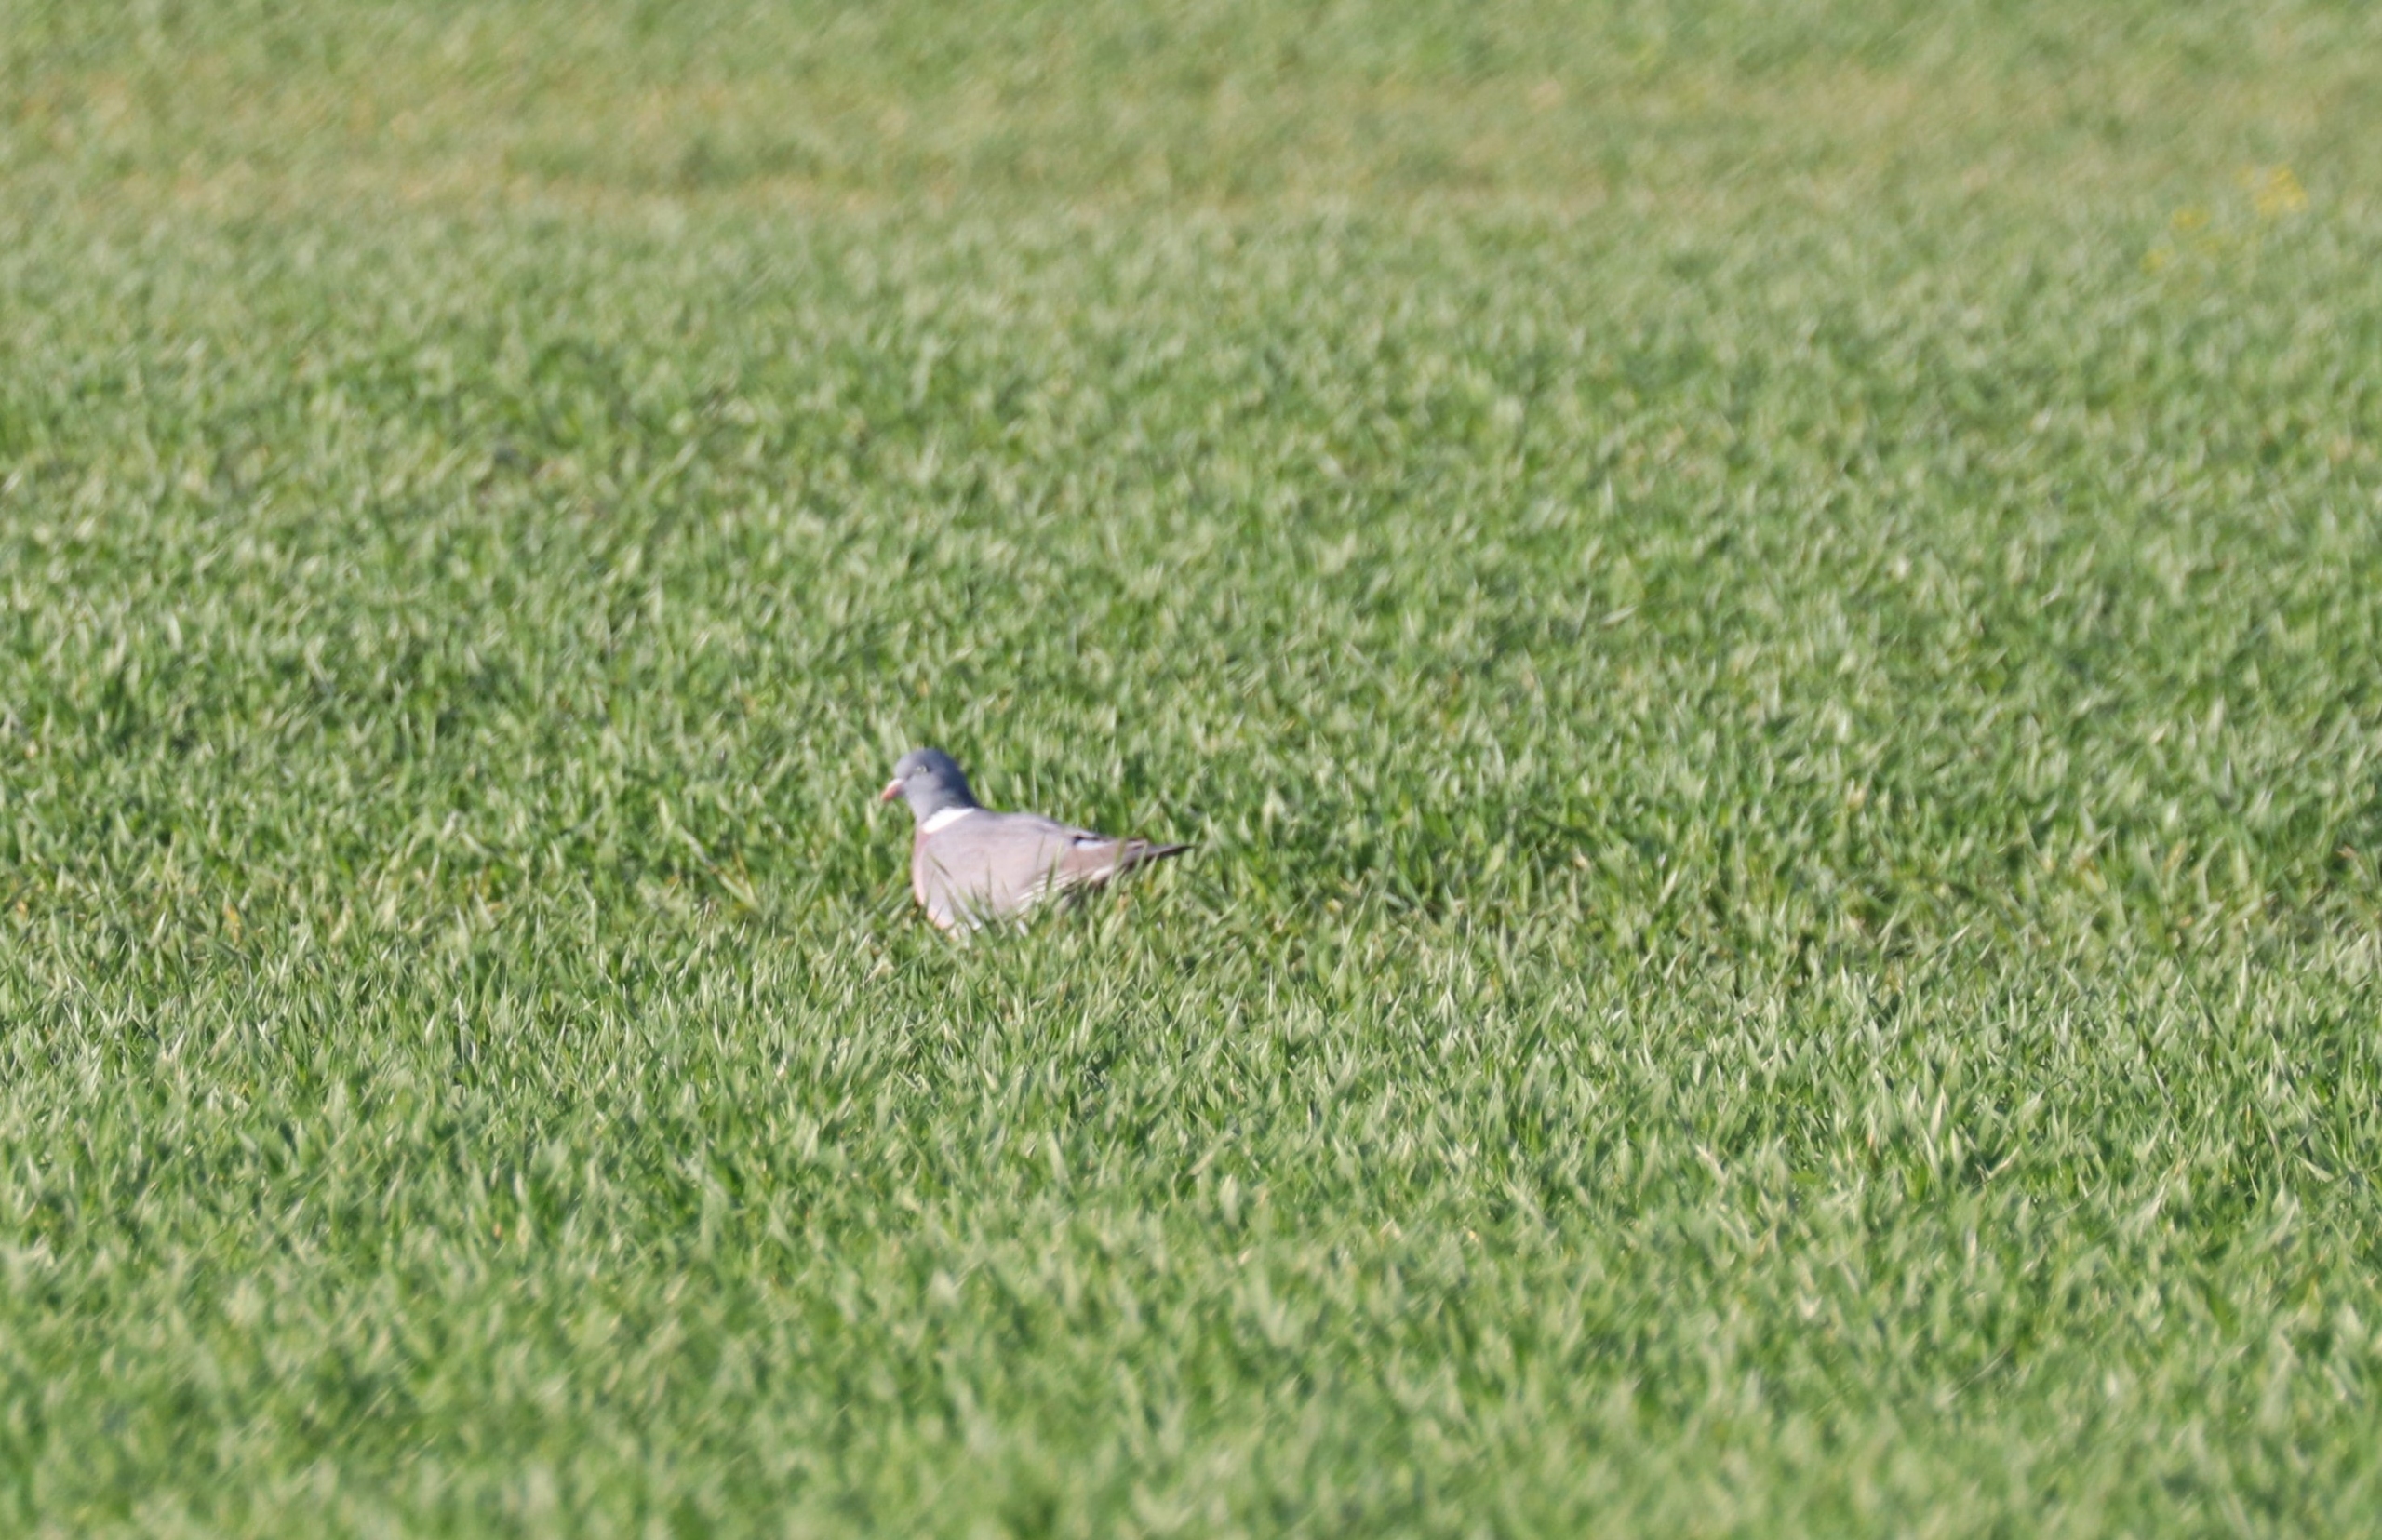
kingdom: Animalia
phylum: Chordata
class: Aves
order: Columbiformes
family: Columbidae
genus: Columba
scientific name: Columba palumbus
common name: Ringdue
